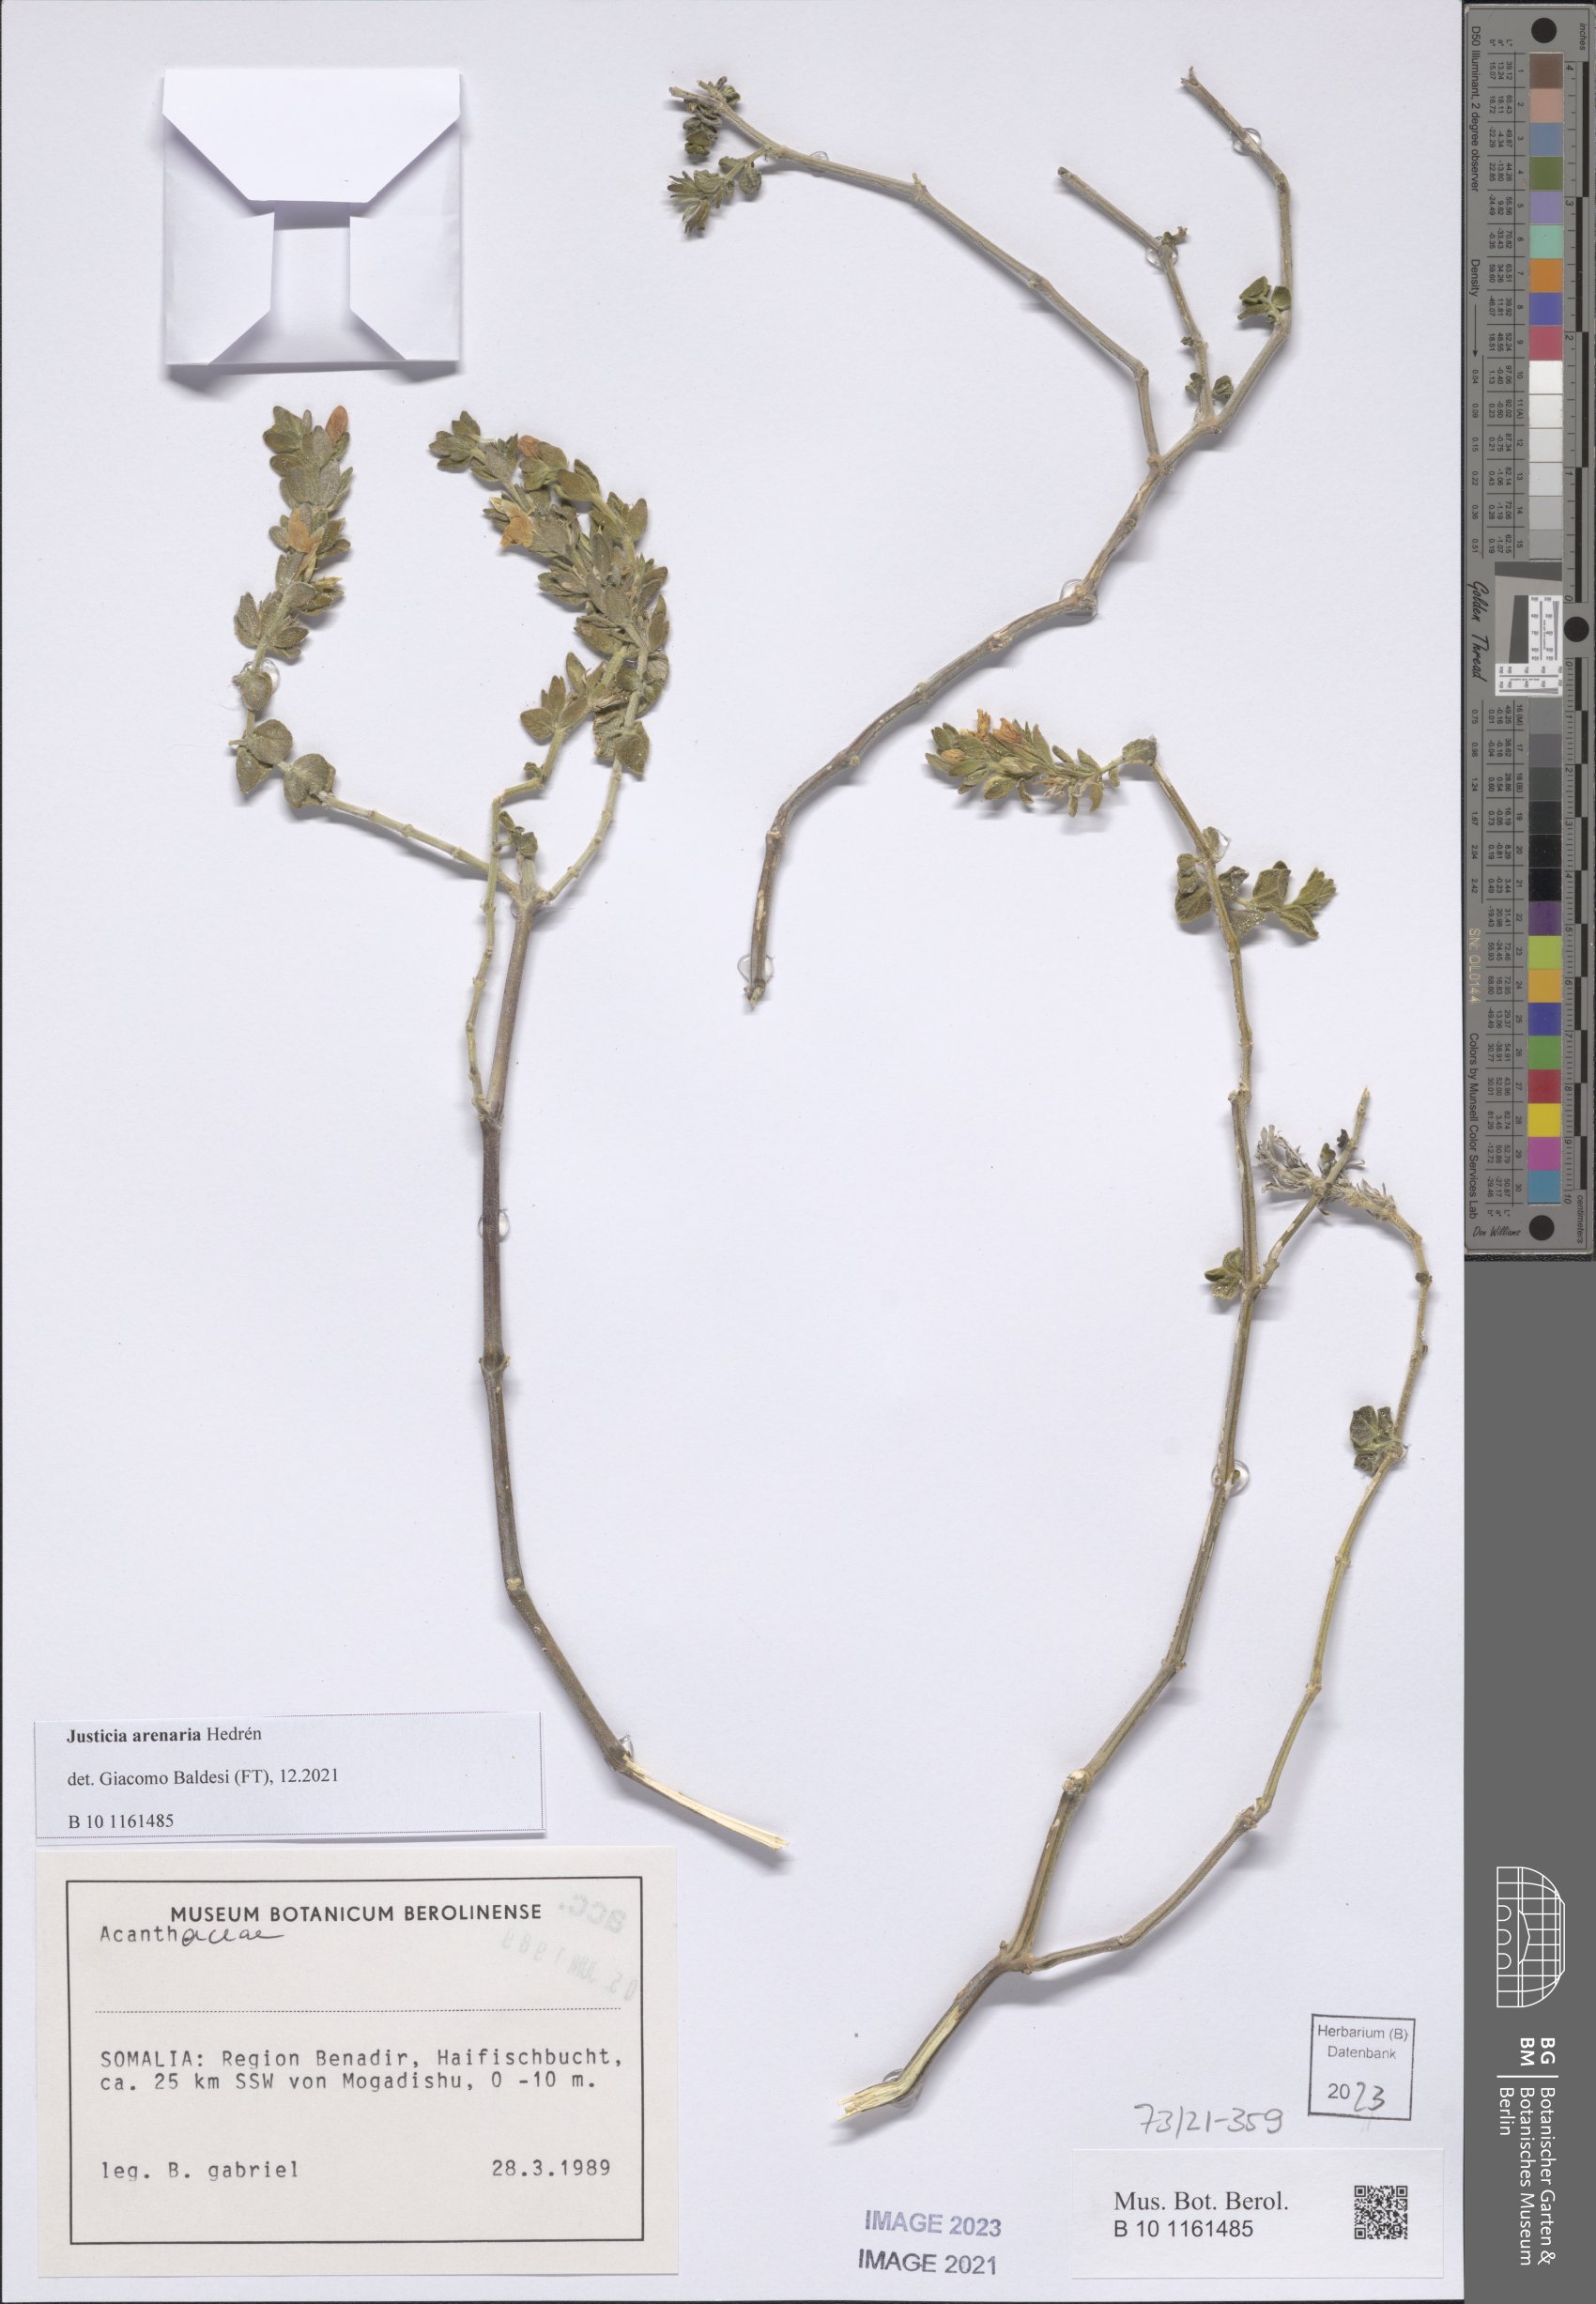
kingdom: Plantae
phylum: Tracheophyta
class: Magnoliopsida
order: Lamiales
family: Acanthaceae
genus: Justicia
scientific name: Justicia baravensis
